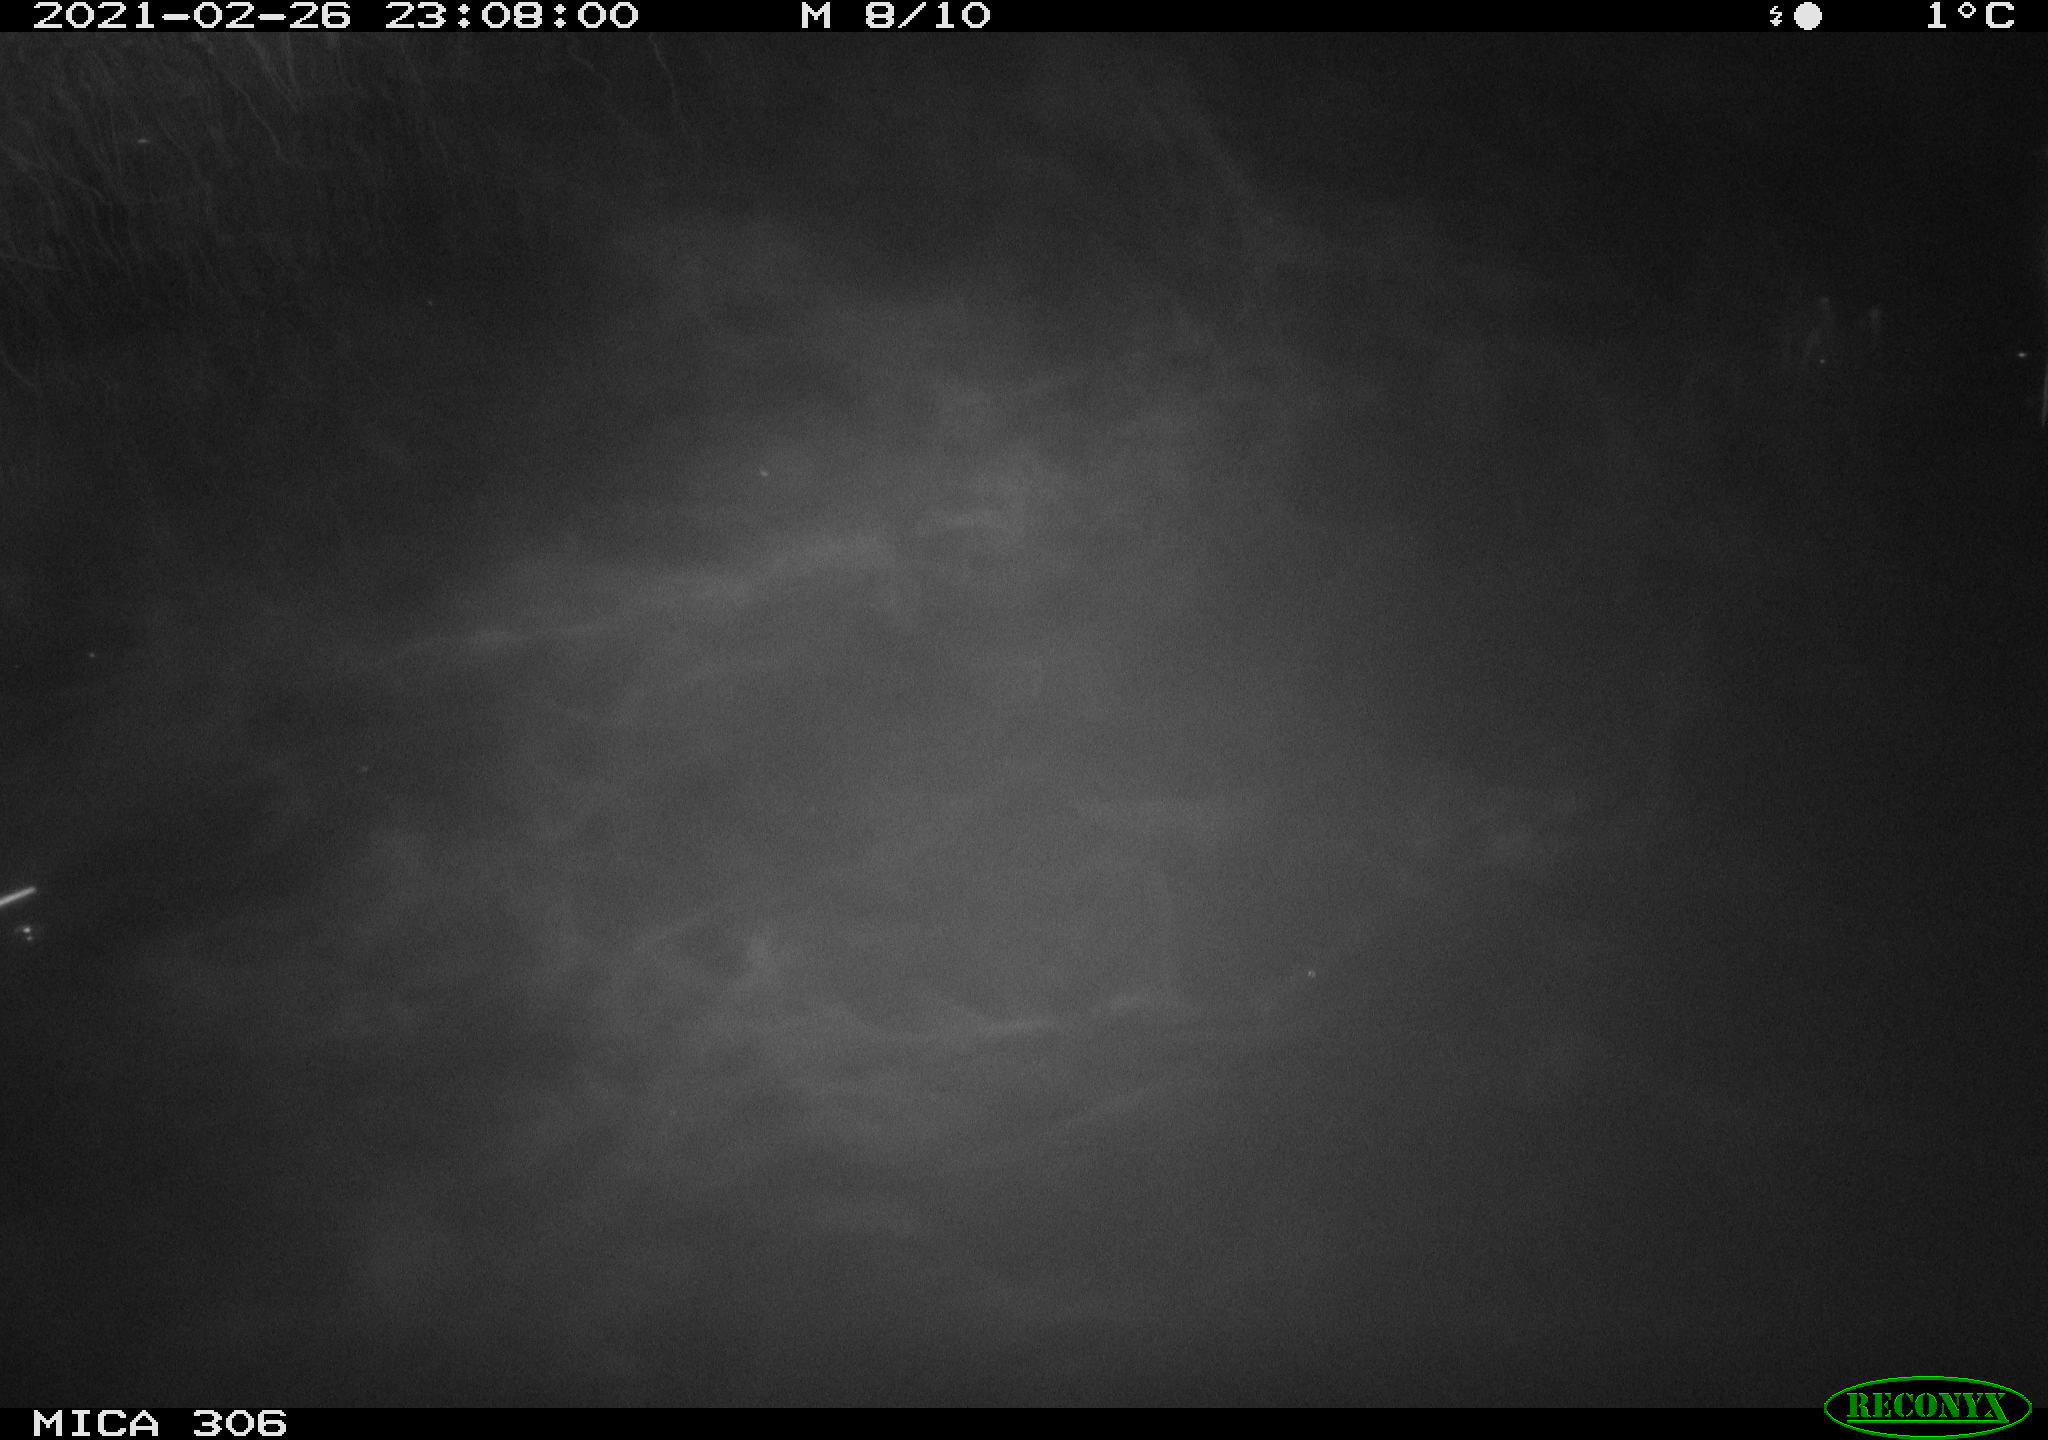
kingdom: Animalia
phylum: Chordata
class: Mammalia
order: Rodentia
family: Muridae
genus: Rattus
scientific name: Rattus norvegicus
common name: Brown rat
